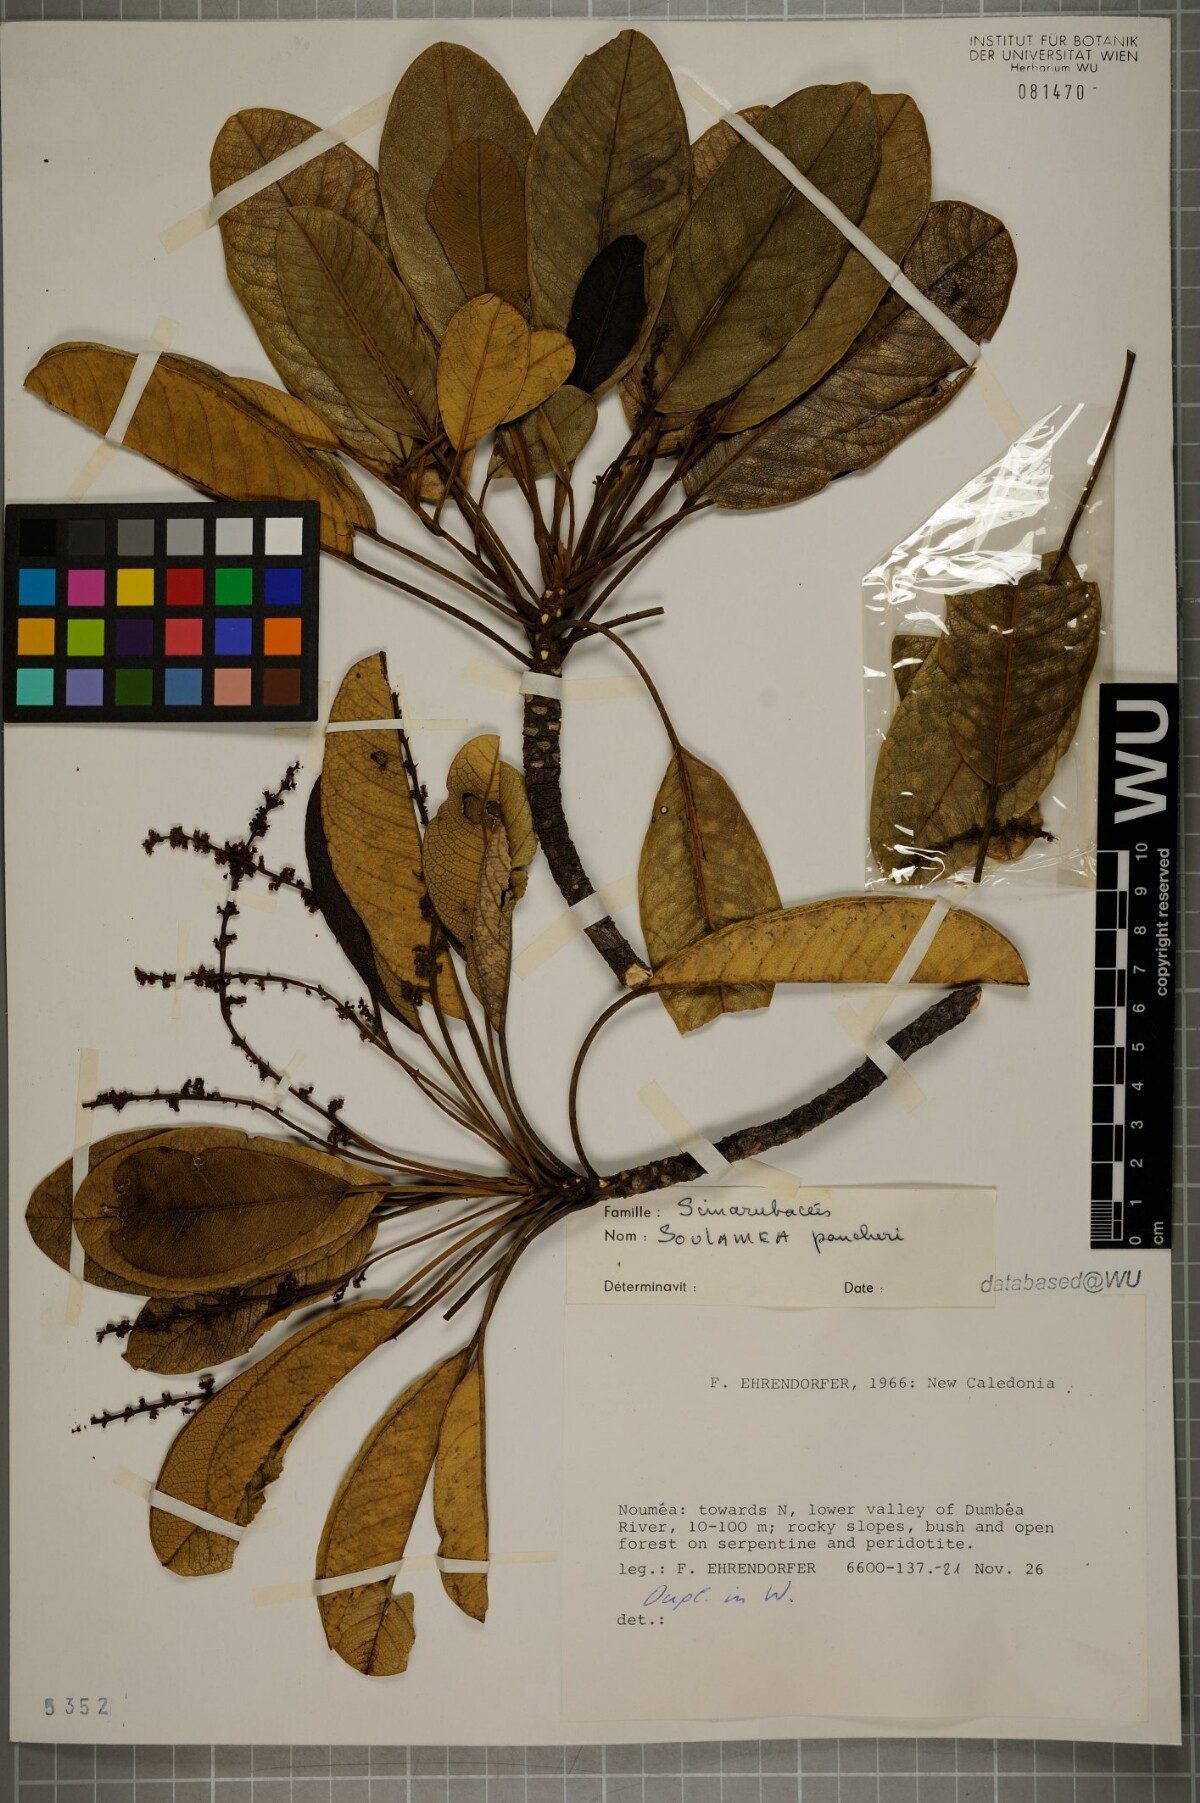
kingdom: Plantae
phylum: Tracheophyta
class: Magnoliopsida
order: Sapindales
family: Simaroubaceae
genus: Soulamea
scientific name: Soulamea pancheri
